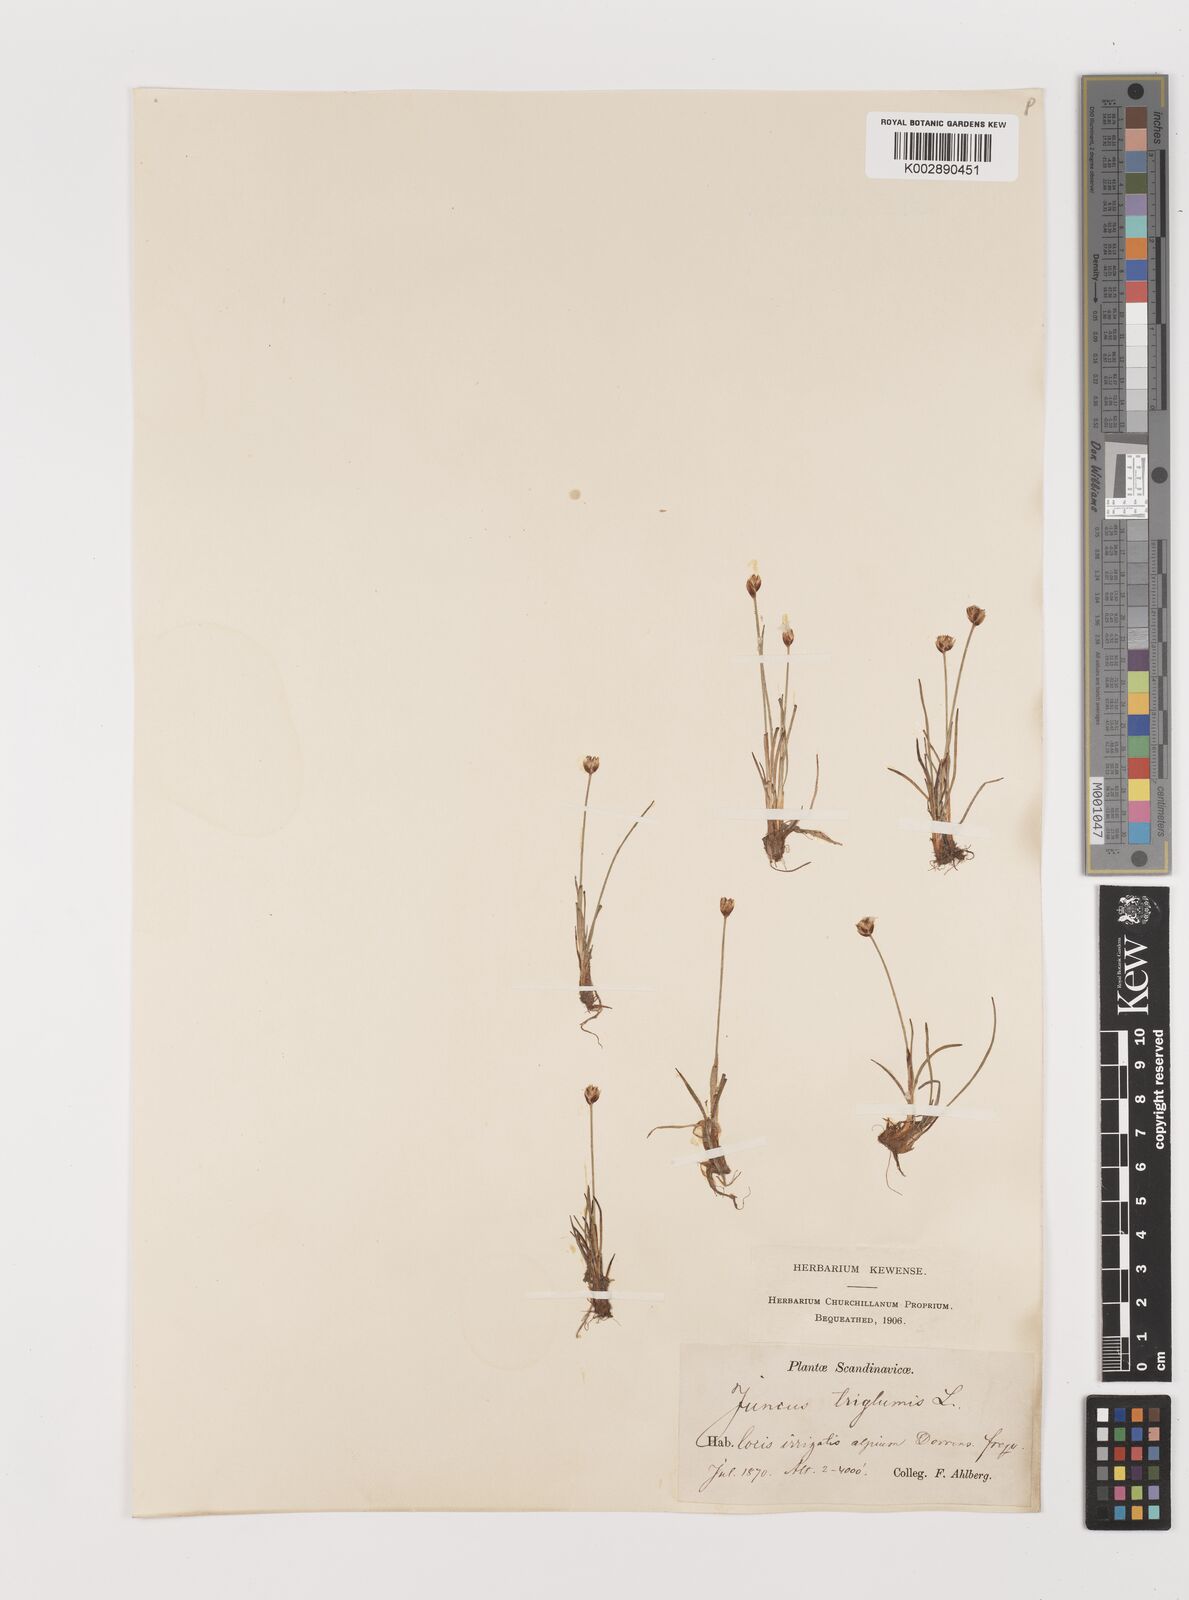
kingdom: Plantae
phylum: Tracheophyta
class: Liliopsida
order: Poales
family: Juncaceae
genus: Juncus
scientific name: Juncus triglumis
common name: Three-flowered rush
